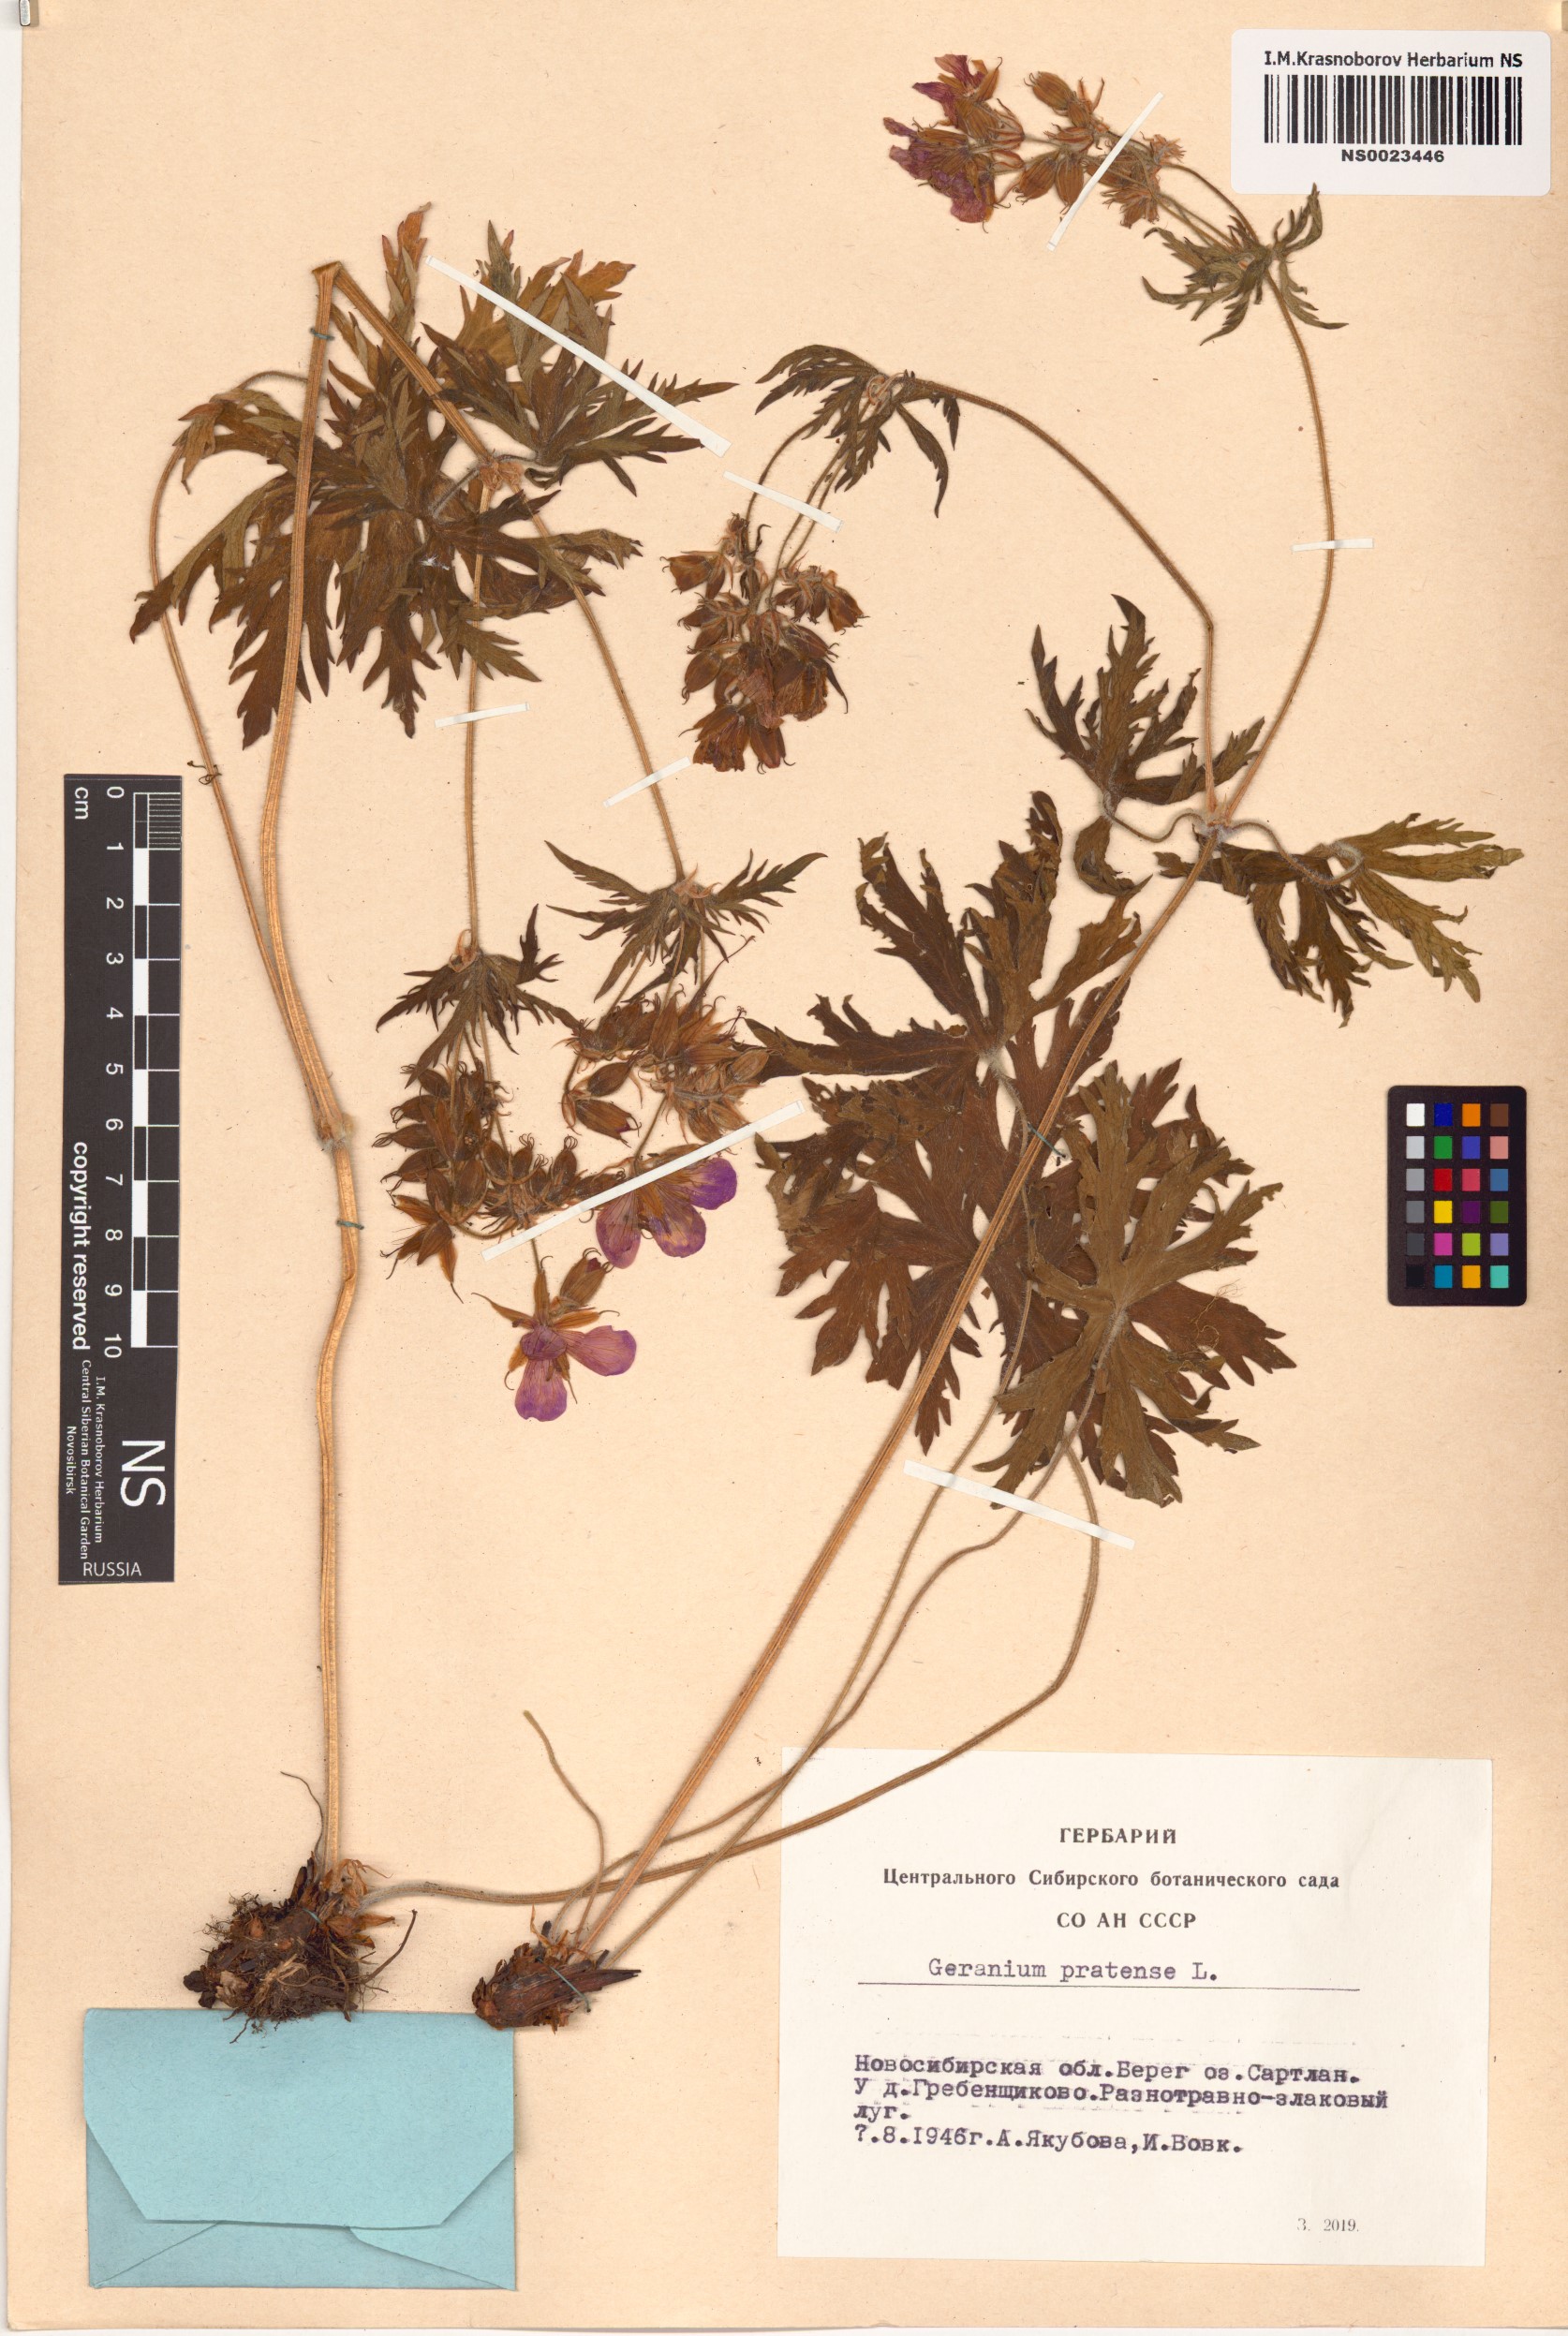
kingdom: Plantae
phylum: Tracheophyta
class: Magnoliopsida
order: Geraniales
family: Geraniaceae
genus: Geranium
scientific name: Geranium pratense
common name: Meadow crane's-bill
